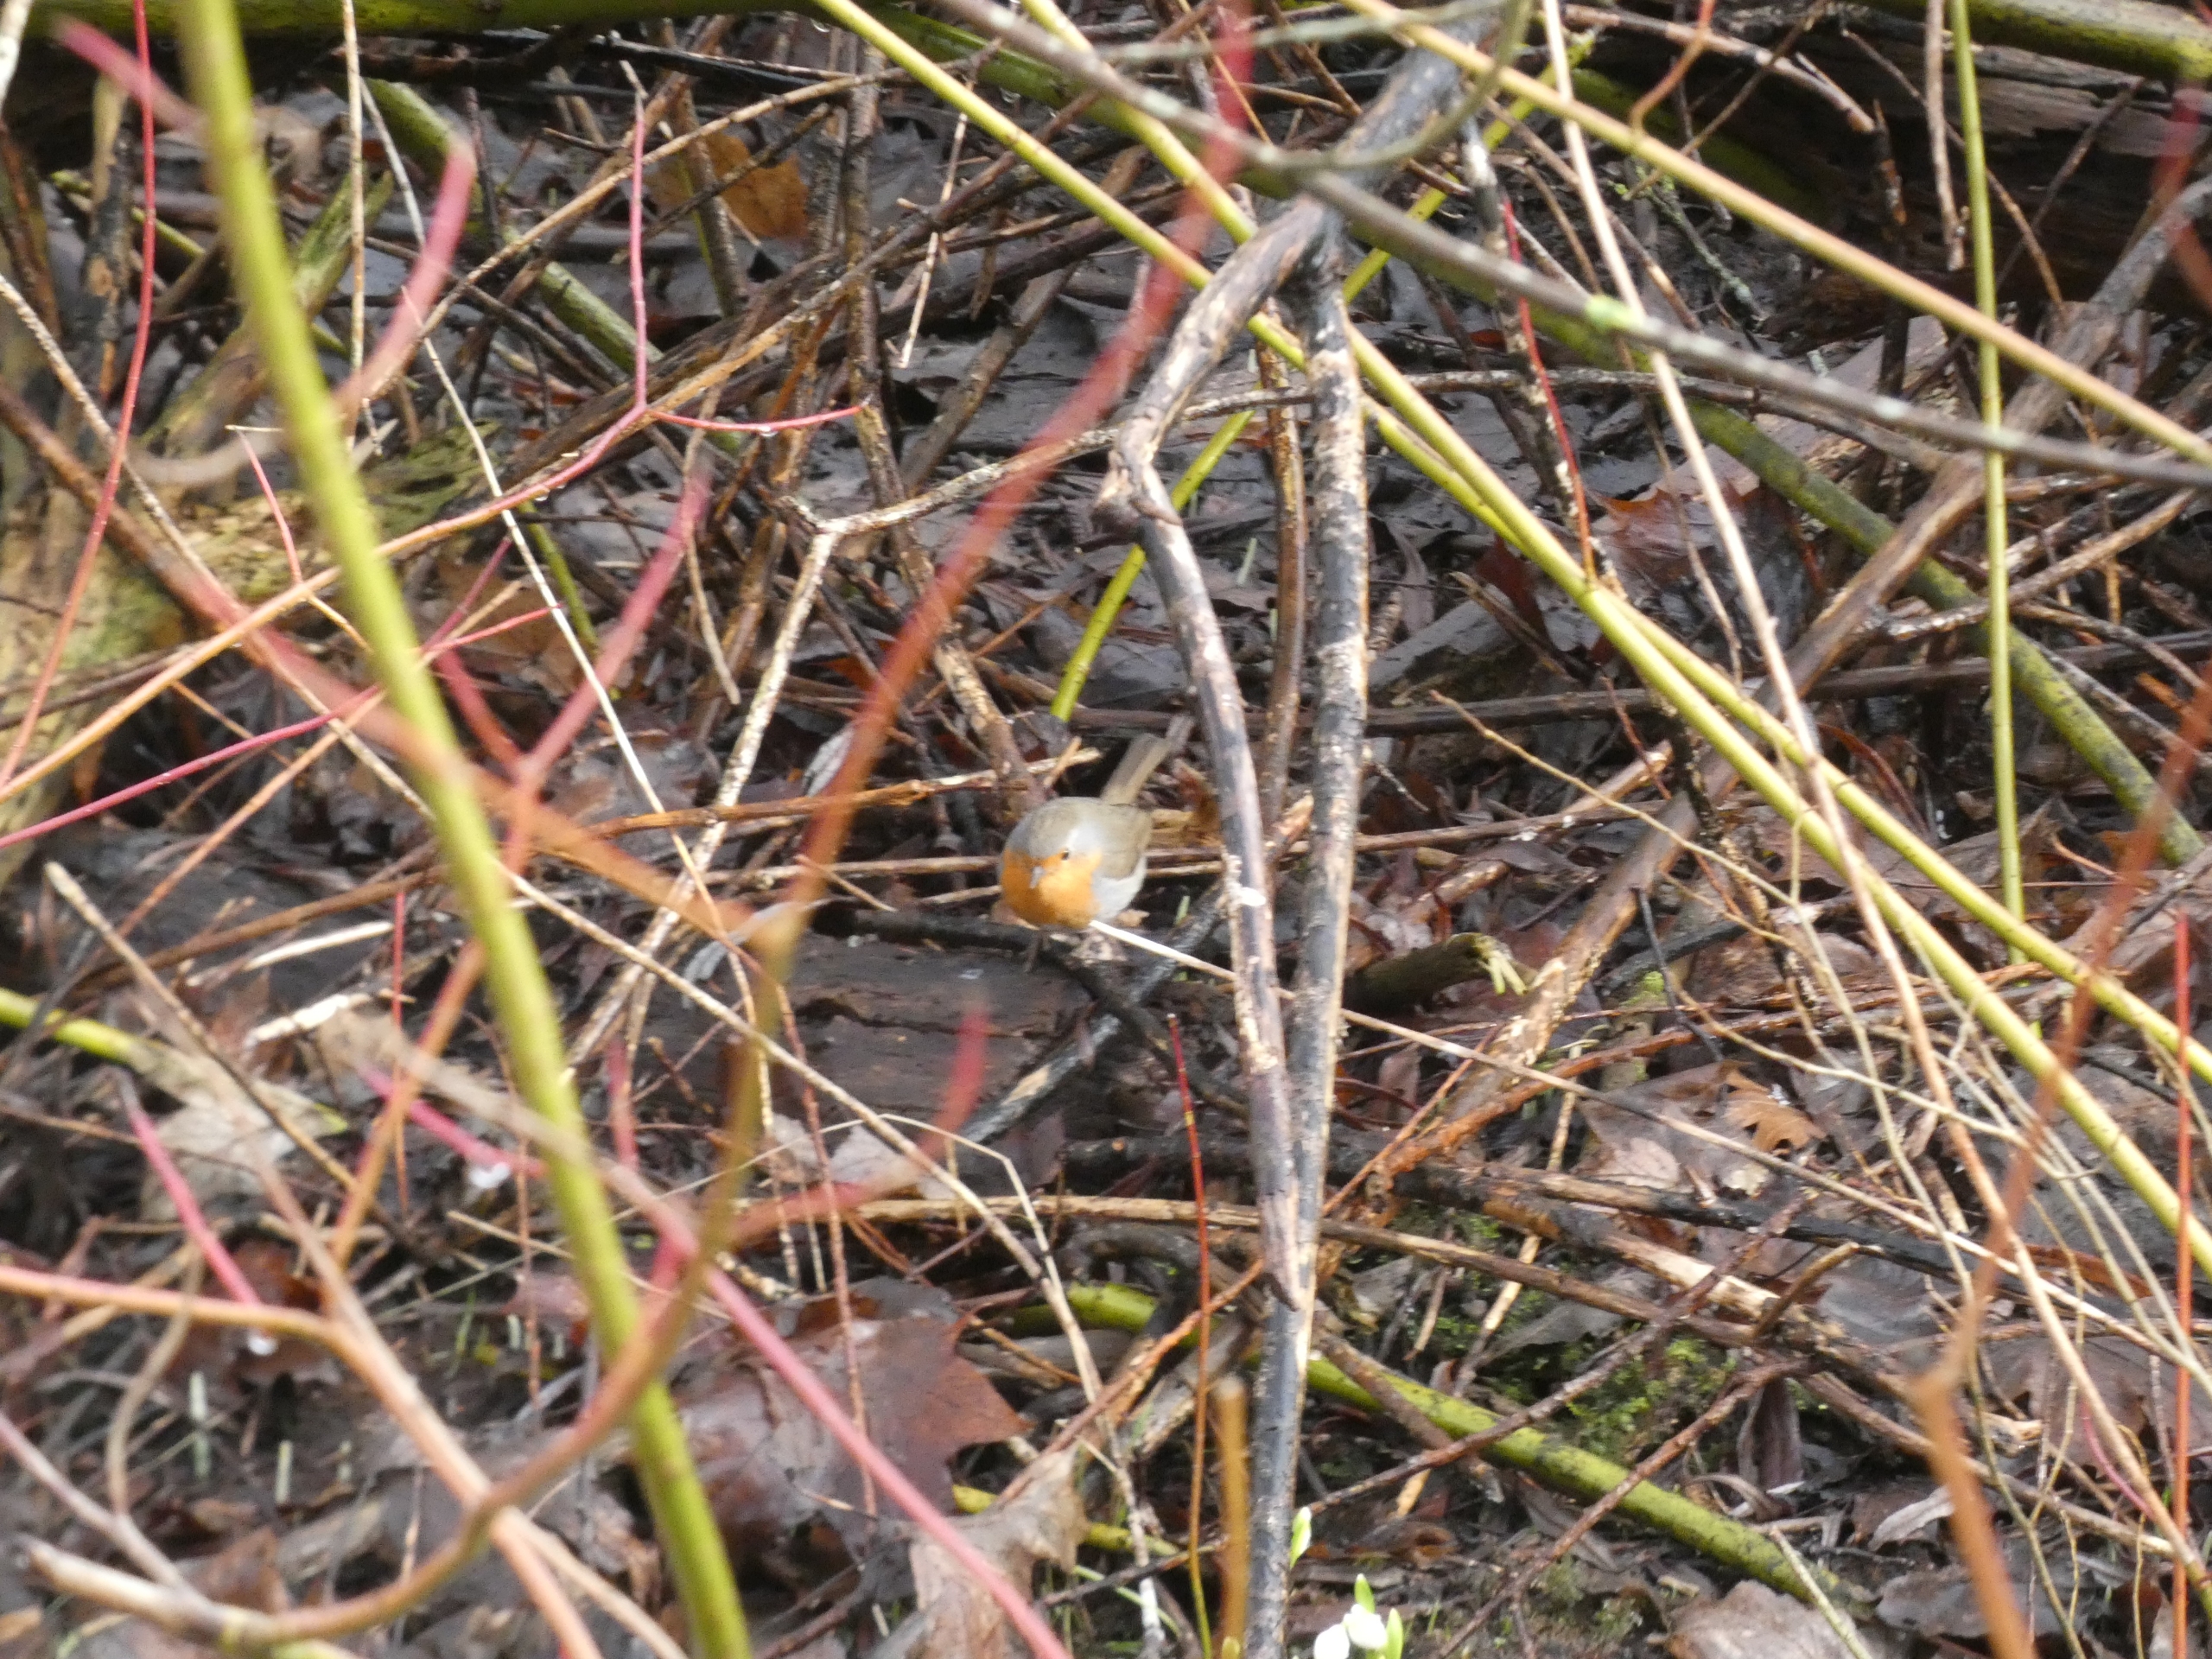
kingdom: Animalia
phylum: Chordata
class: Aves
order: Passeriformes
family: Muscicapidae
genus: Erithacus
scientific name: Erithacus rubecula
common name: Rødhals/rødkælk
